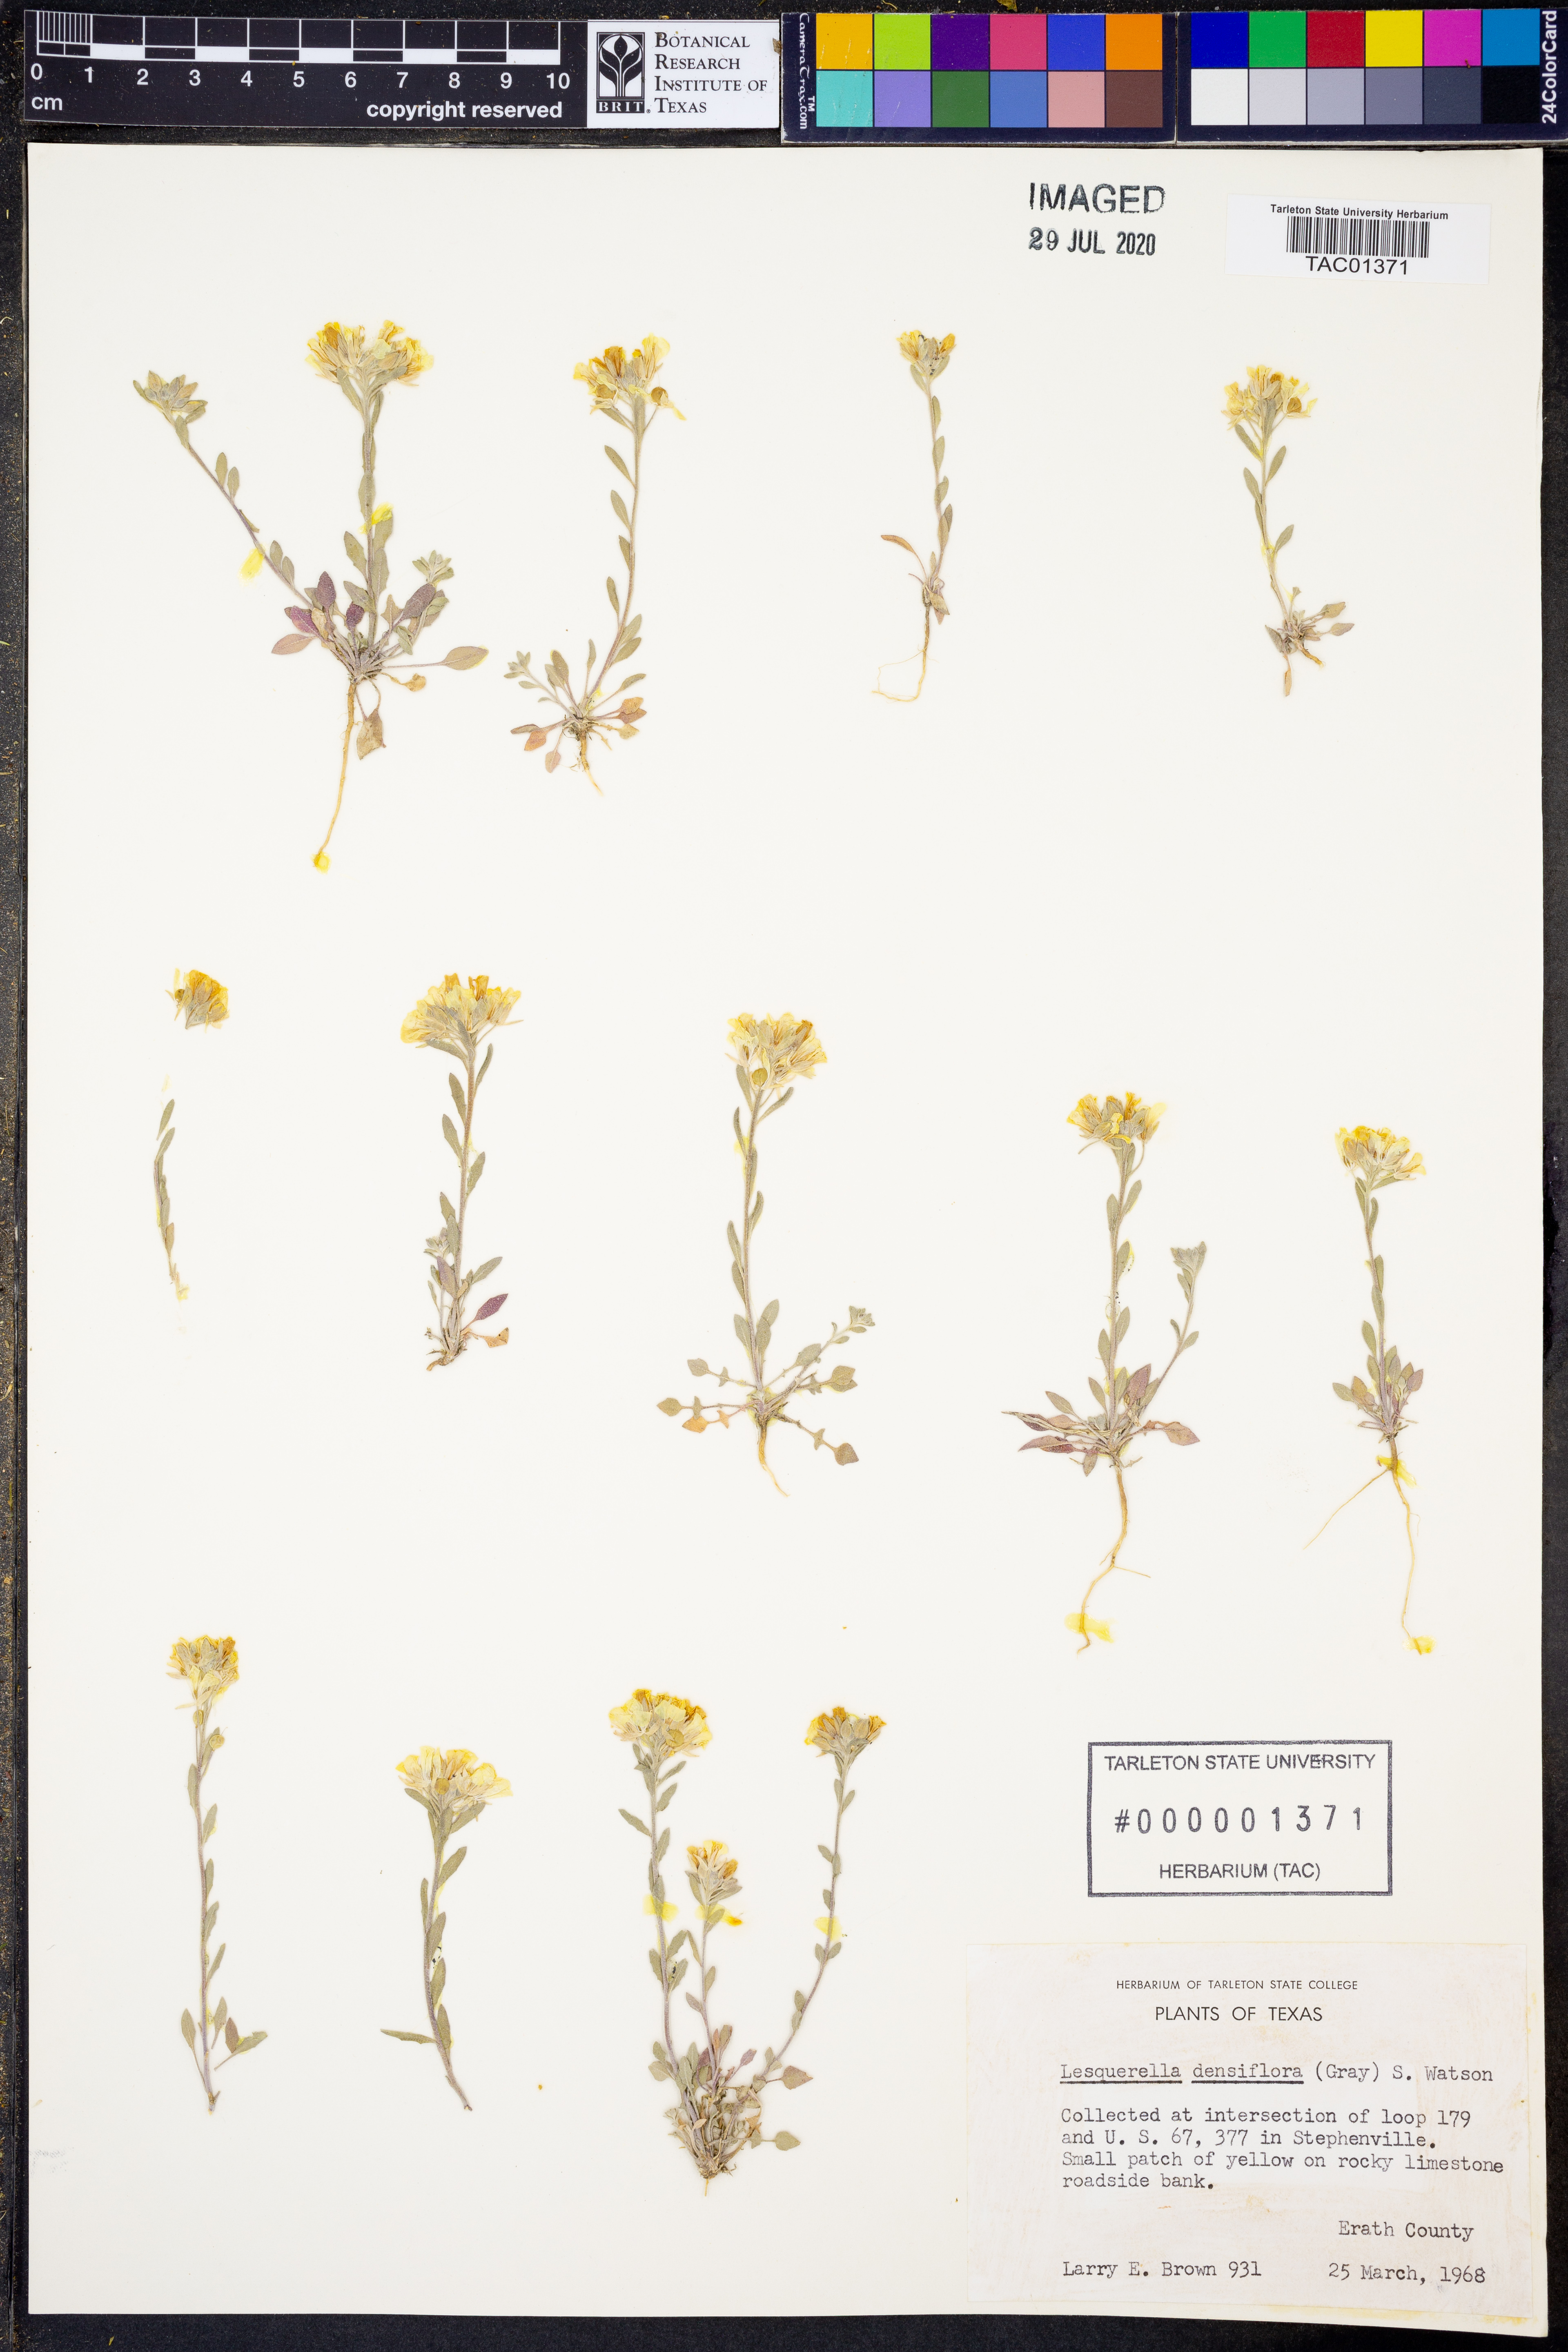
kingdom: Plantae
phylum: Tracheophyta
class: Magnoliopsida
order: Brassicales
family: Brassicaceae
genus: Physaria
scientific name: Physaria densiflora
